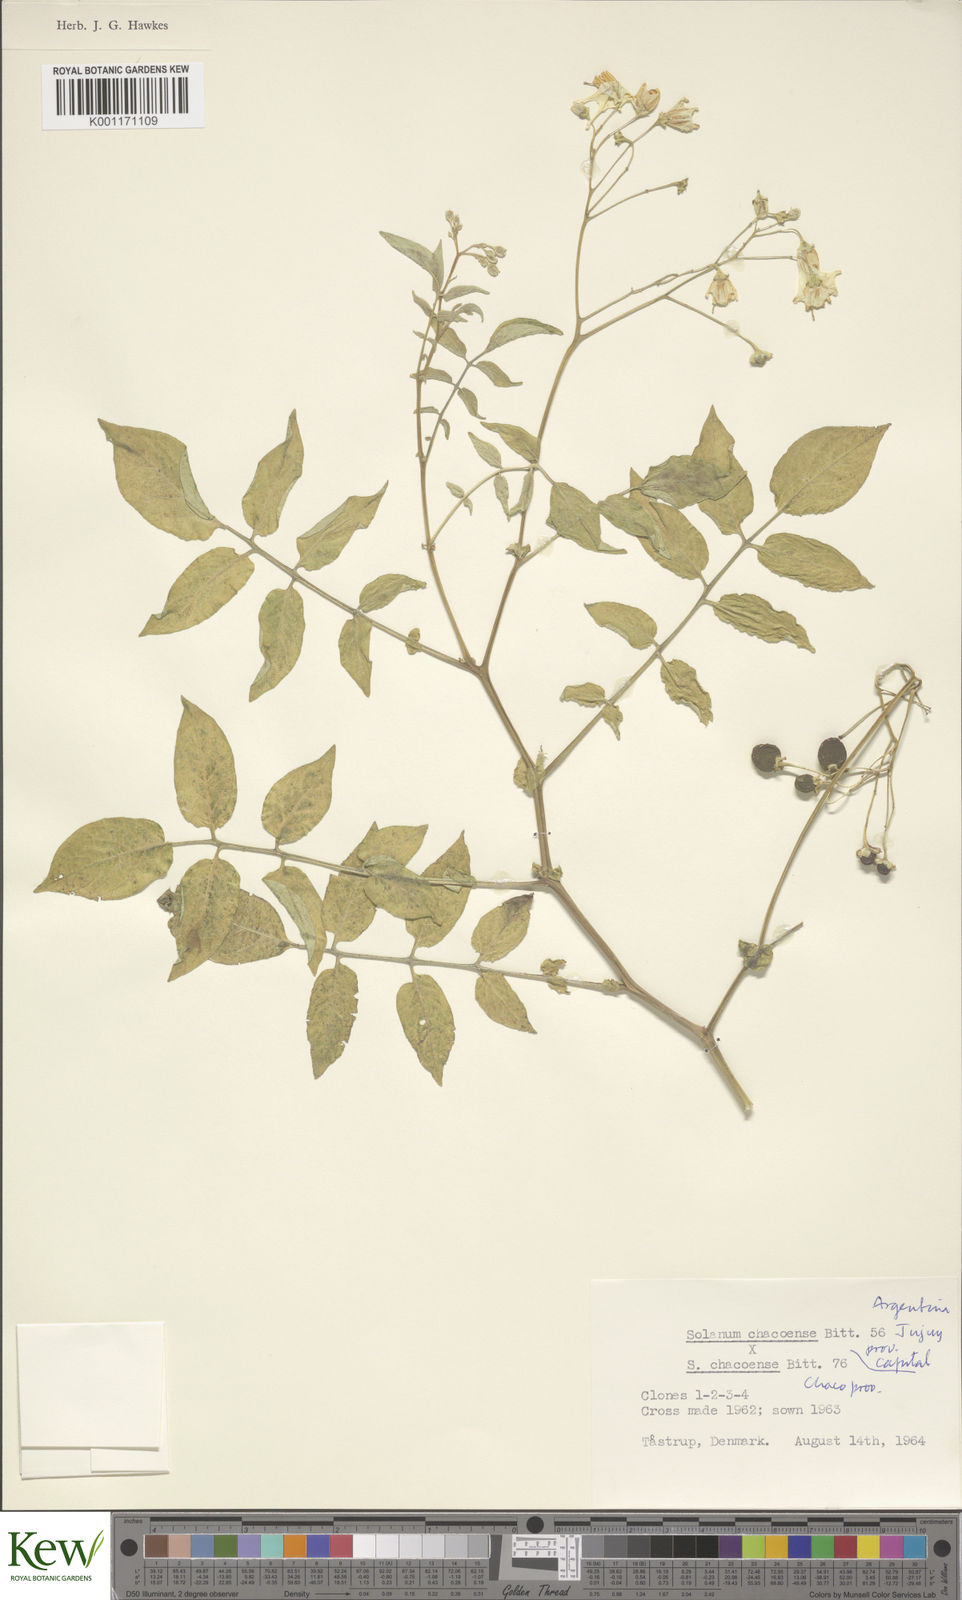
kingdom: Plantae
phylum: Tracheophyta
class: Magnoliopsida
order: Solanales
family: Solanaceae
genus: Solanum
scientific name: Solanum chacoense
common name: Chaco potato
